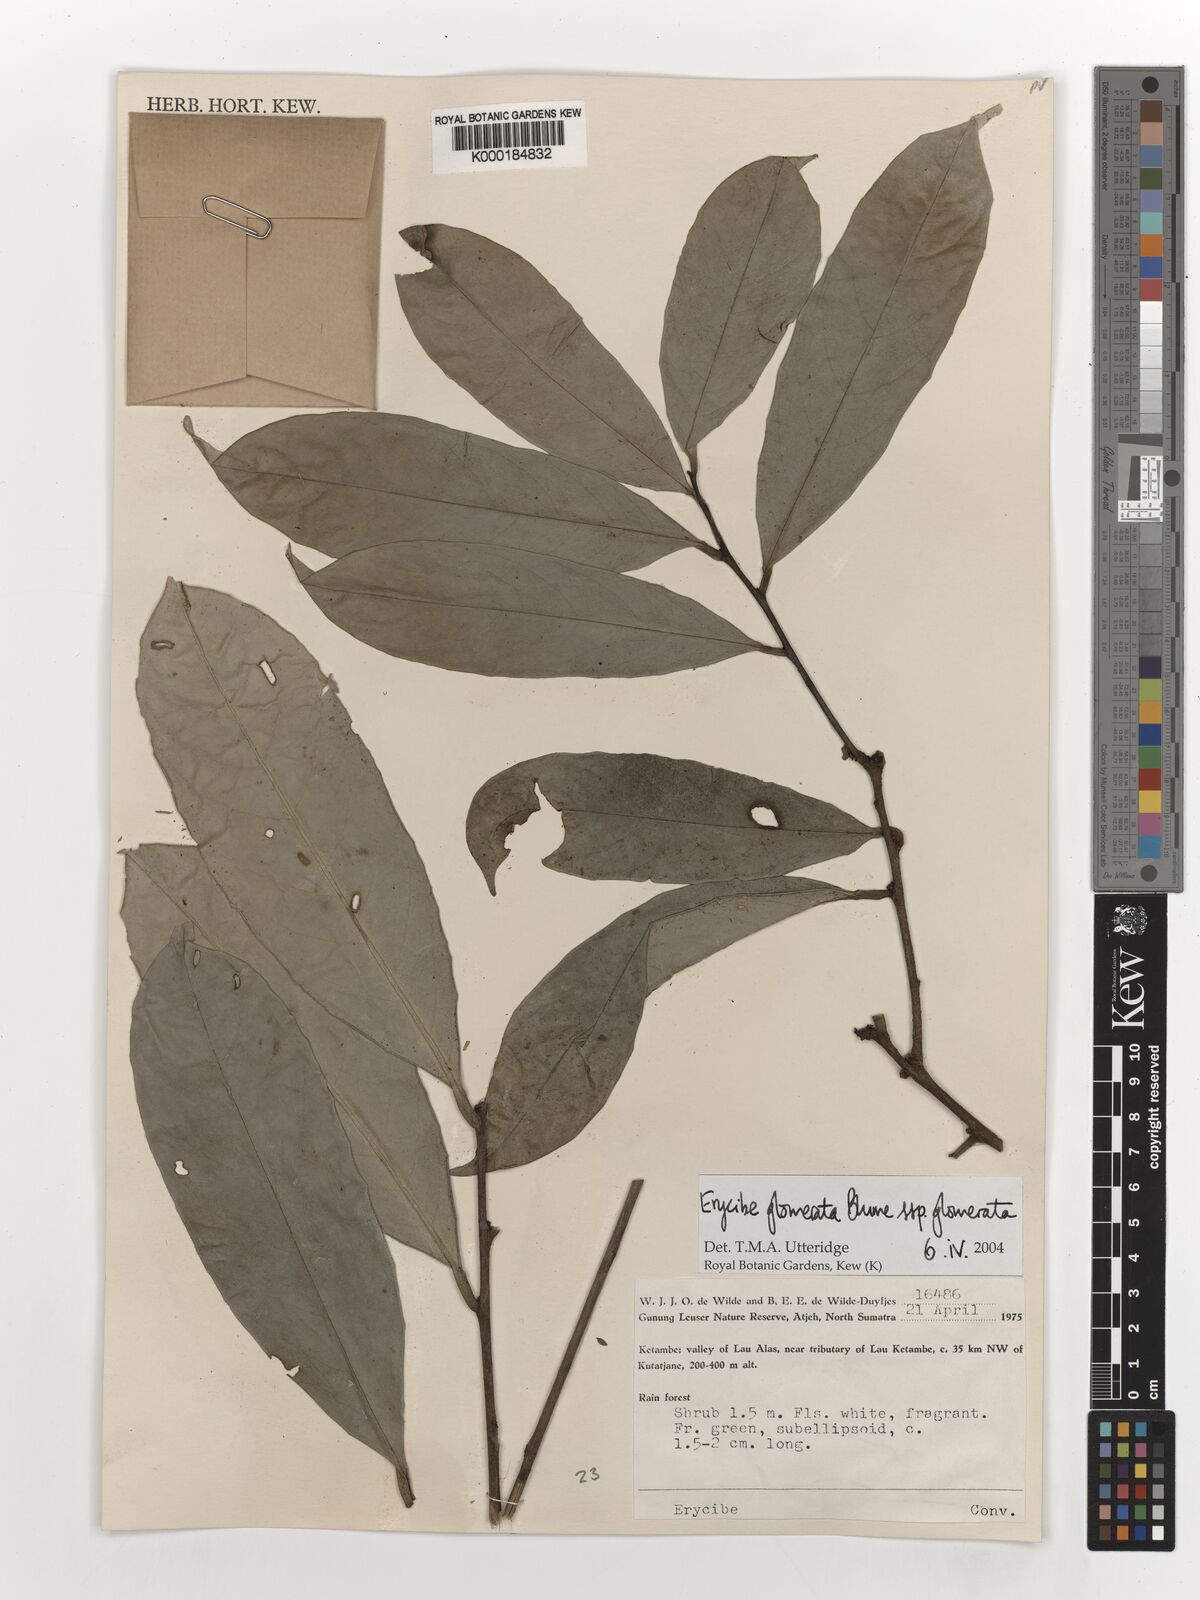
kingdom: Plantae
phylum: Tracheophyta
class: Magnoliopsida
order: Solanales
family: Convolvulaceae
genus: Erycibe
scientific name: Erycibe glomerata
